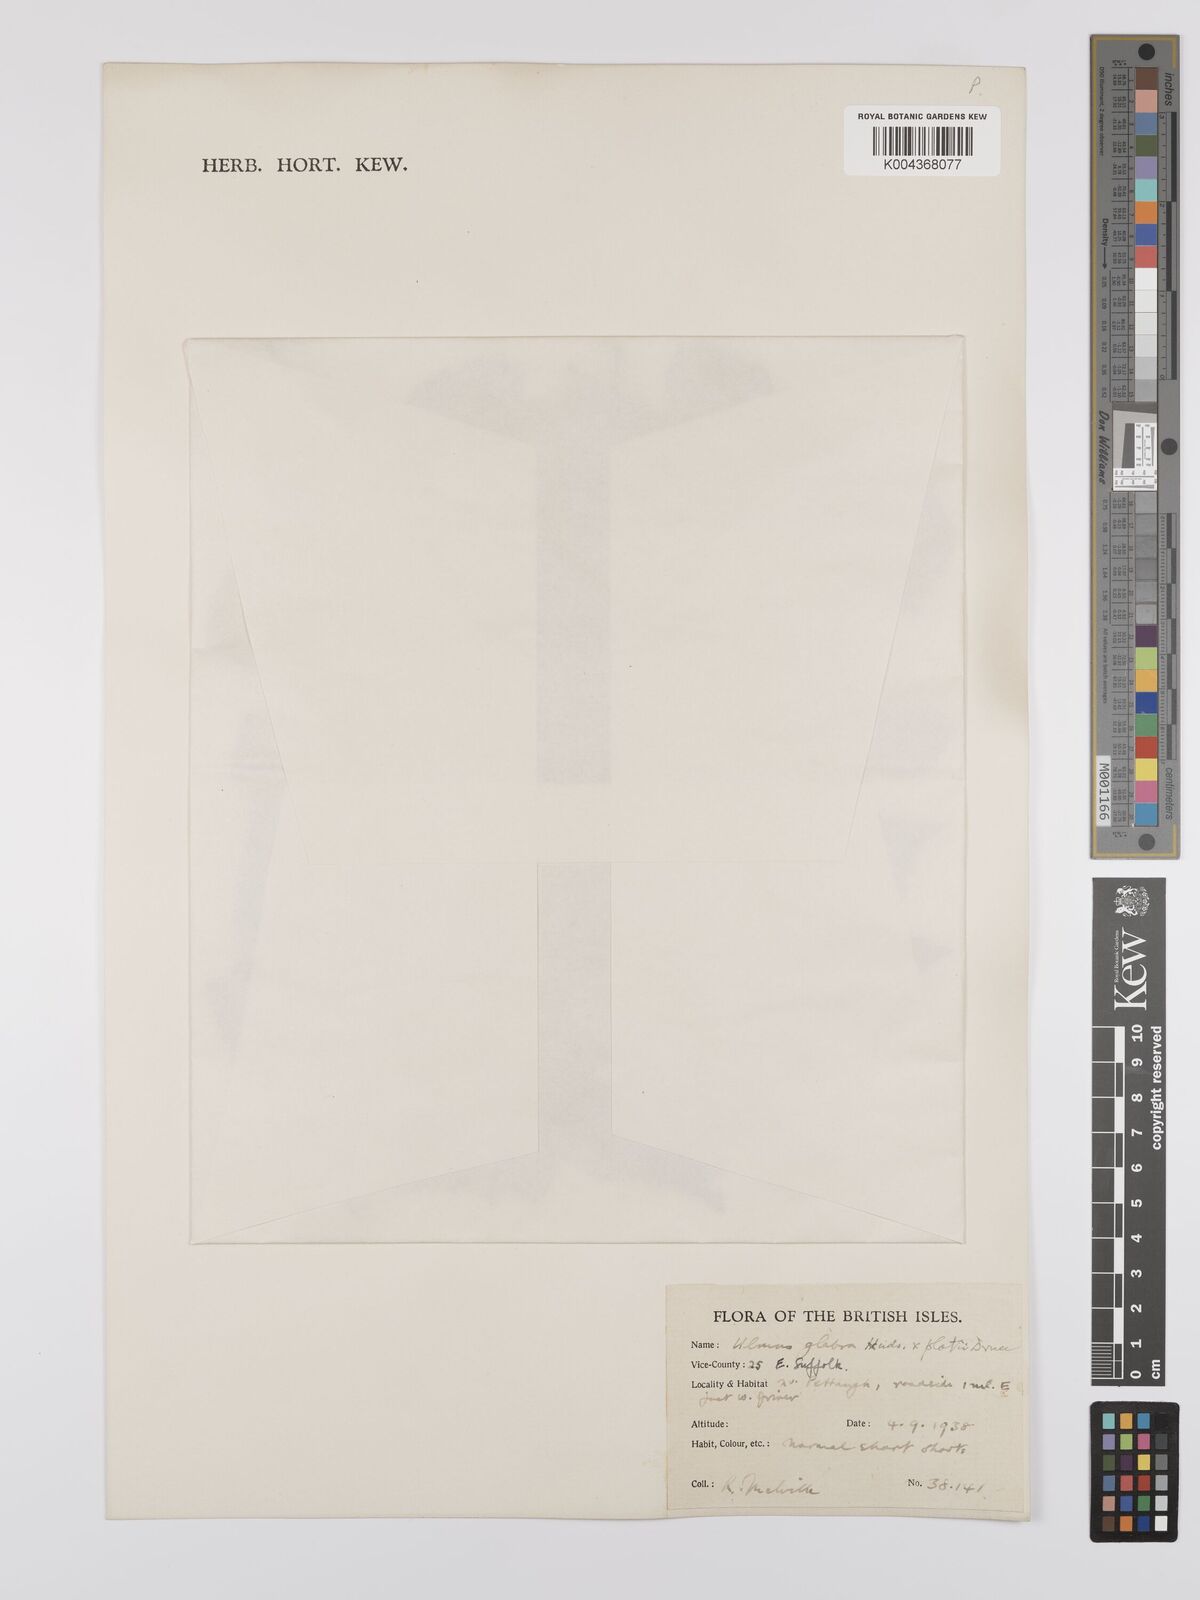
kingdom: Plantae
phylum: Tracheophyta
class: Magnoliopsida
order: Rosales
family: Ulmaceae
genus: Ulmus
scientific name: Ulmus
